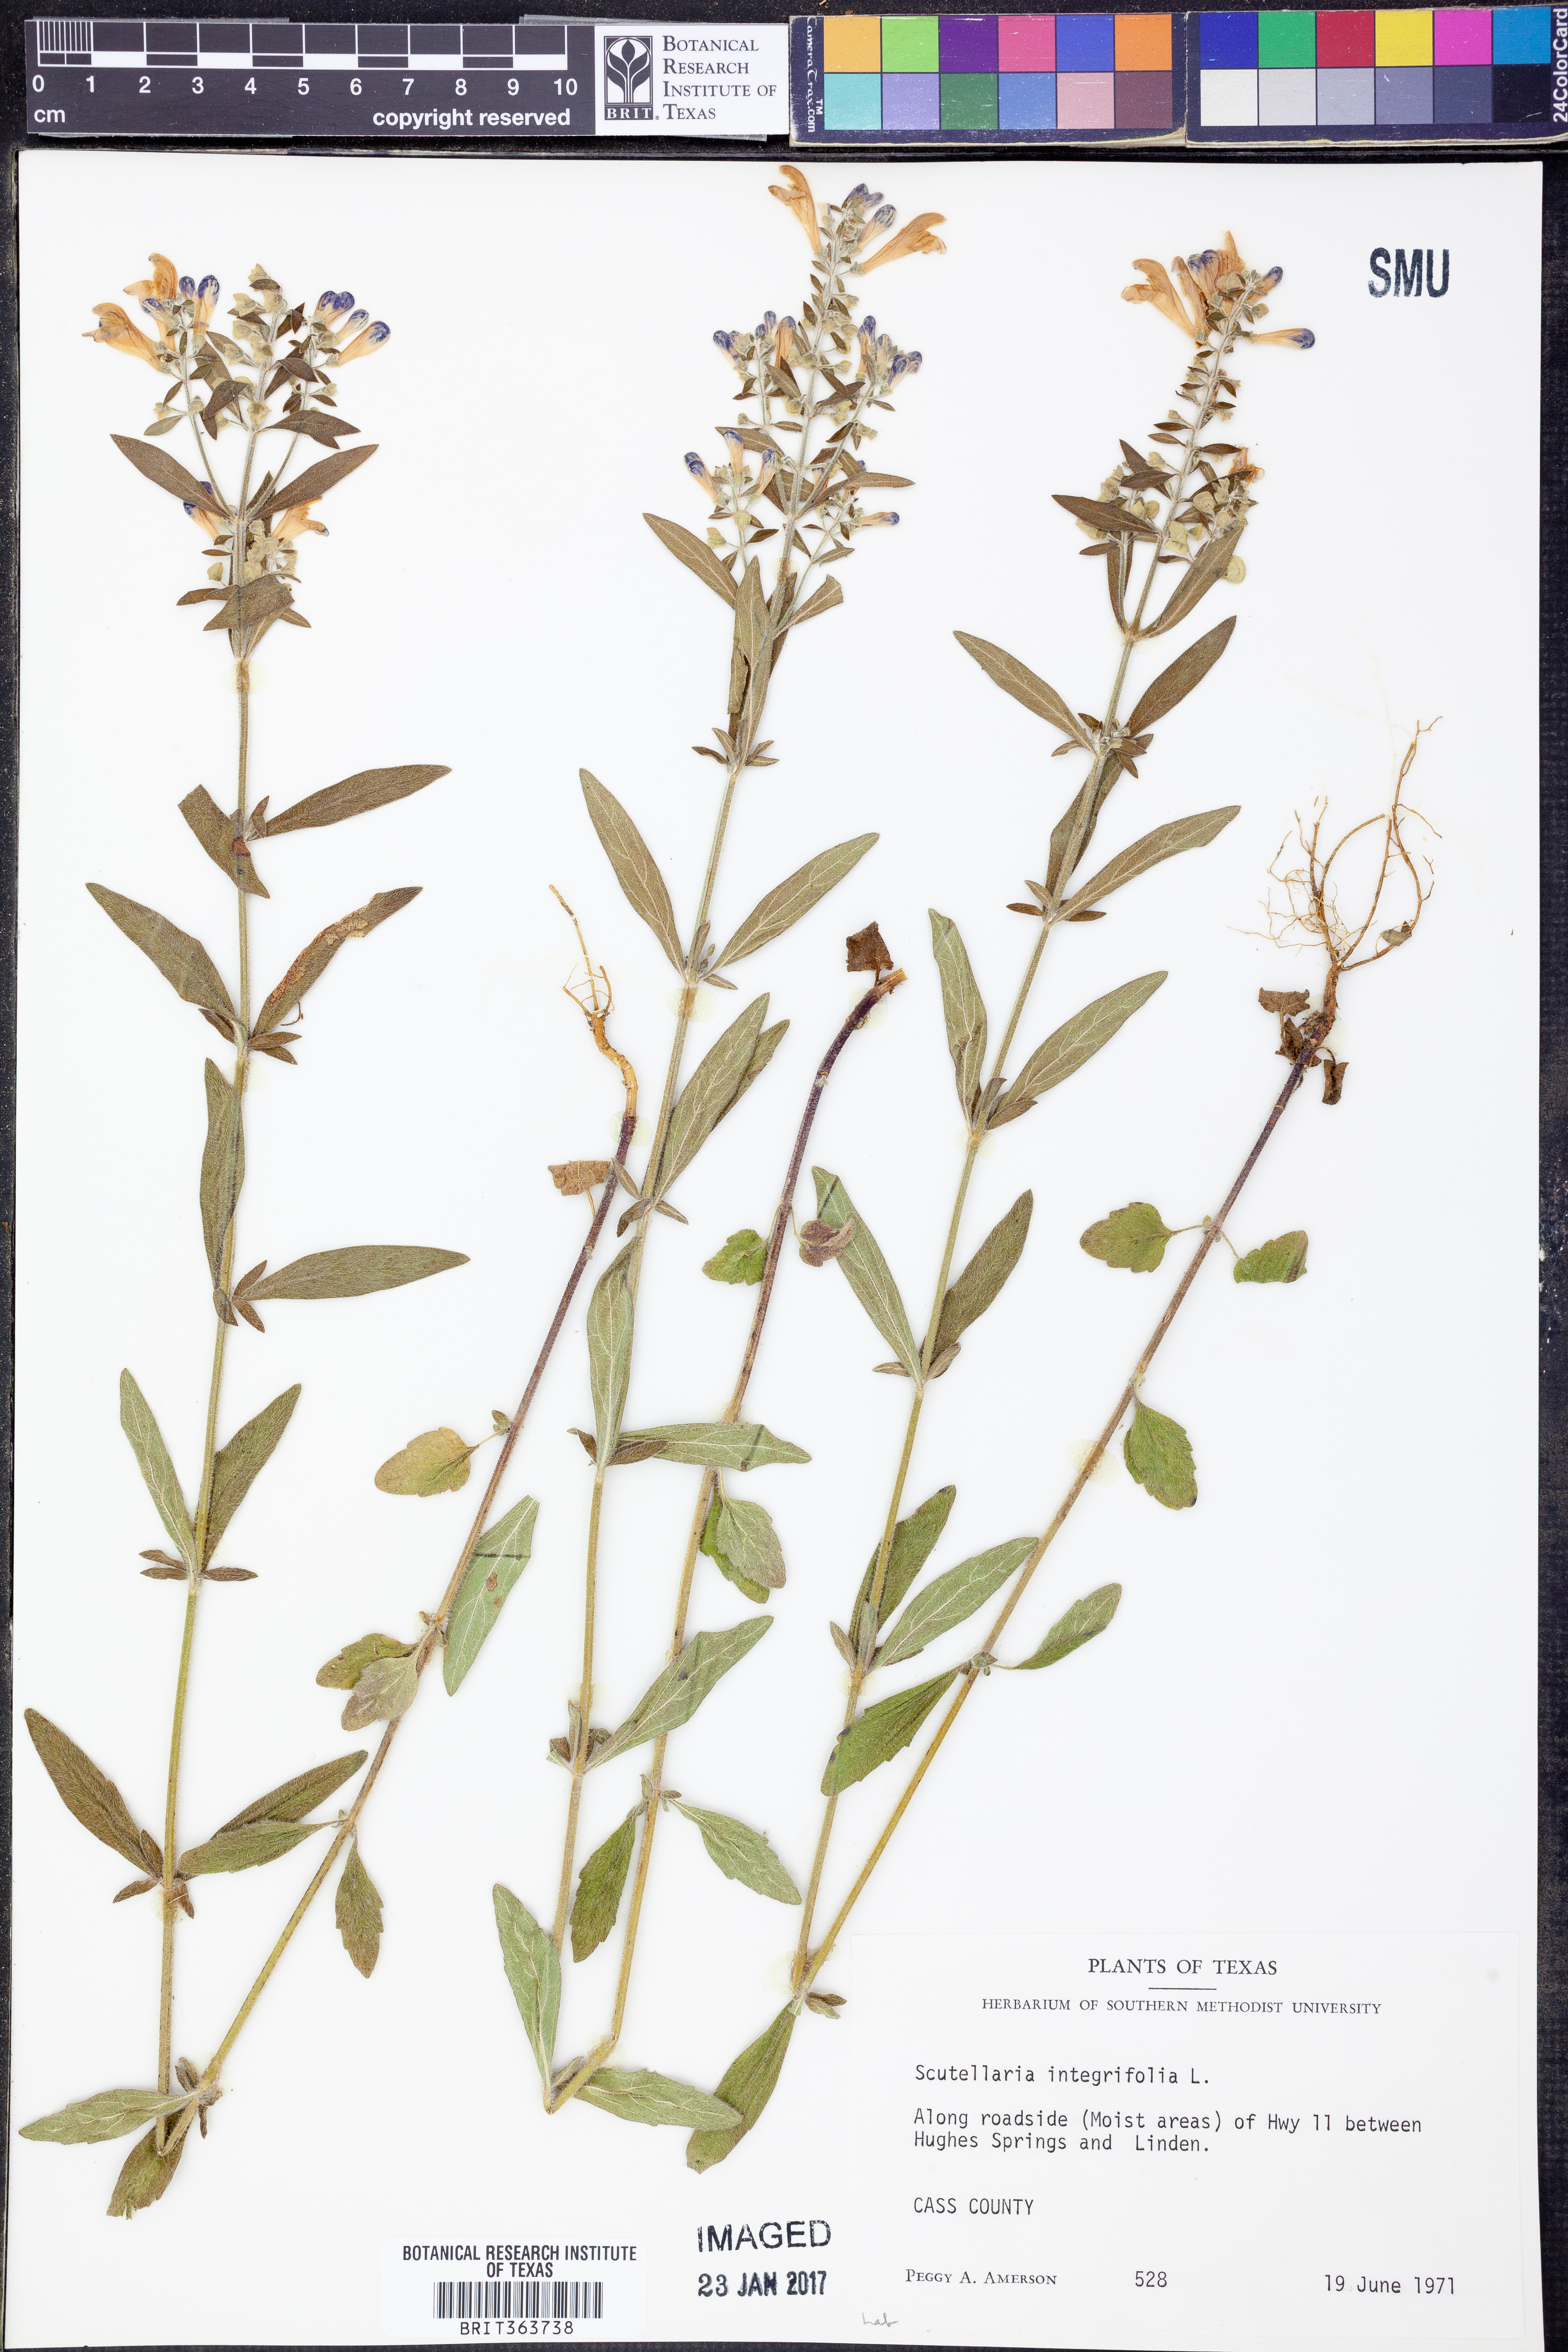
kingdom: Plantae
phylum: Tracheophyta
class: Magnoliopsida
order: Lamiales
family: Lamiaceae
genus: Scutellaria
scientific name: Scutellaria integrifolia
